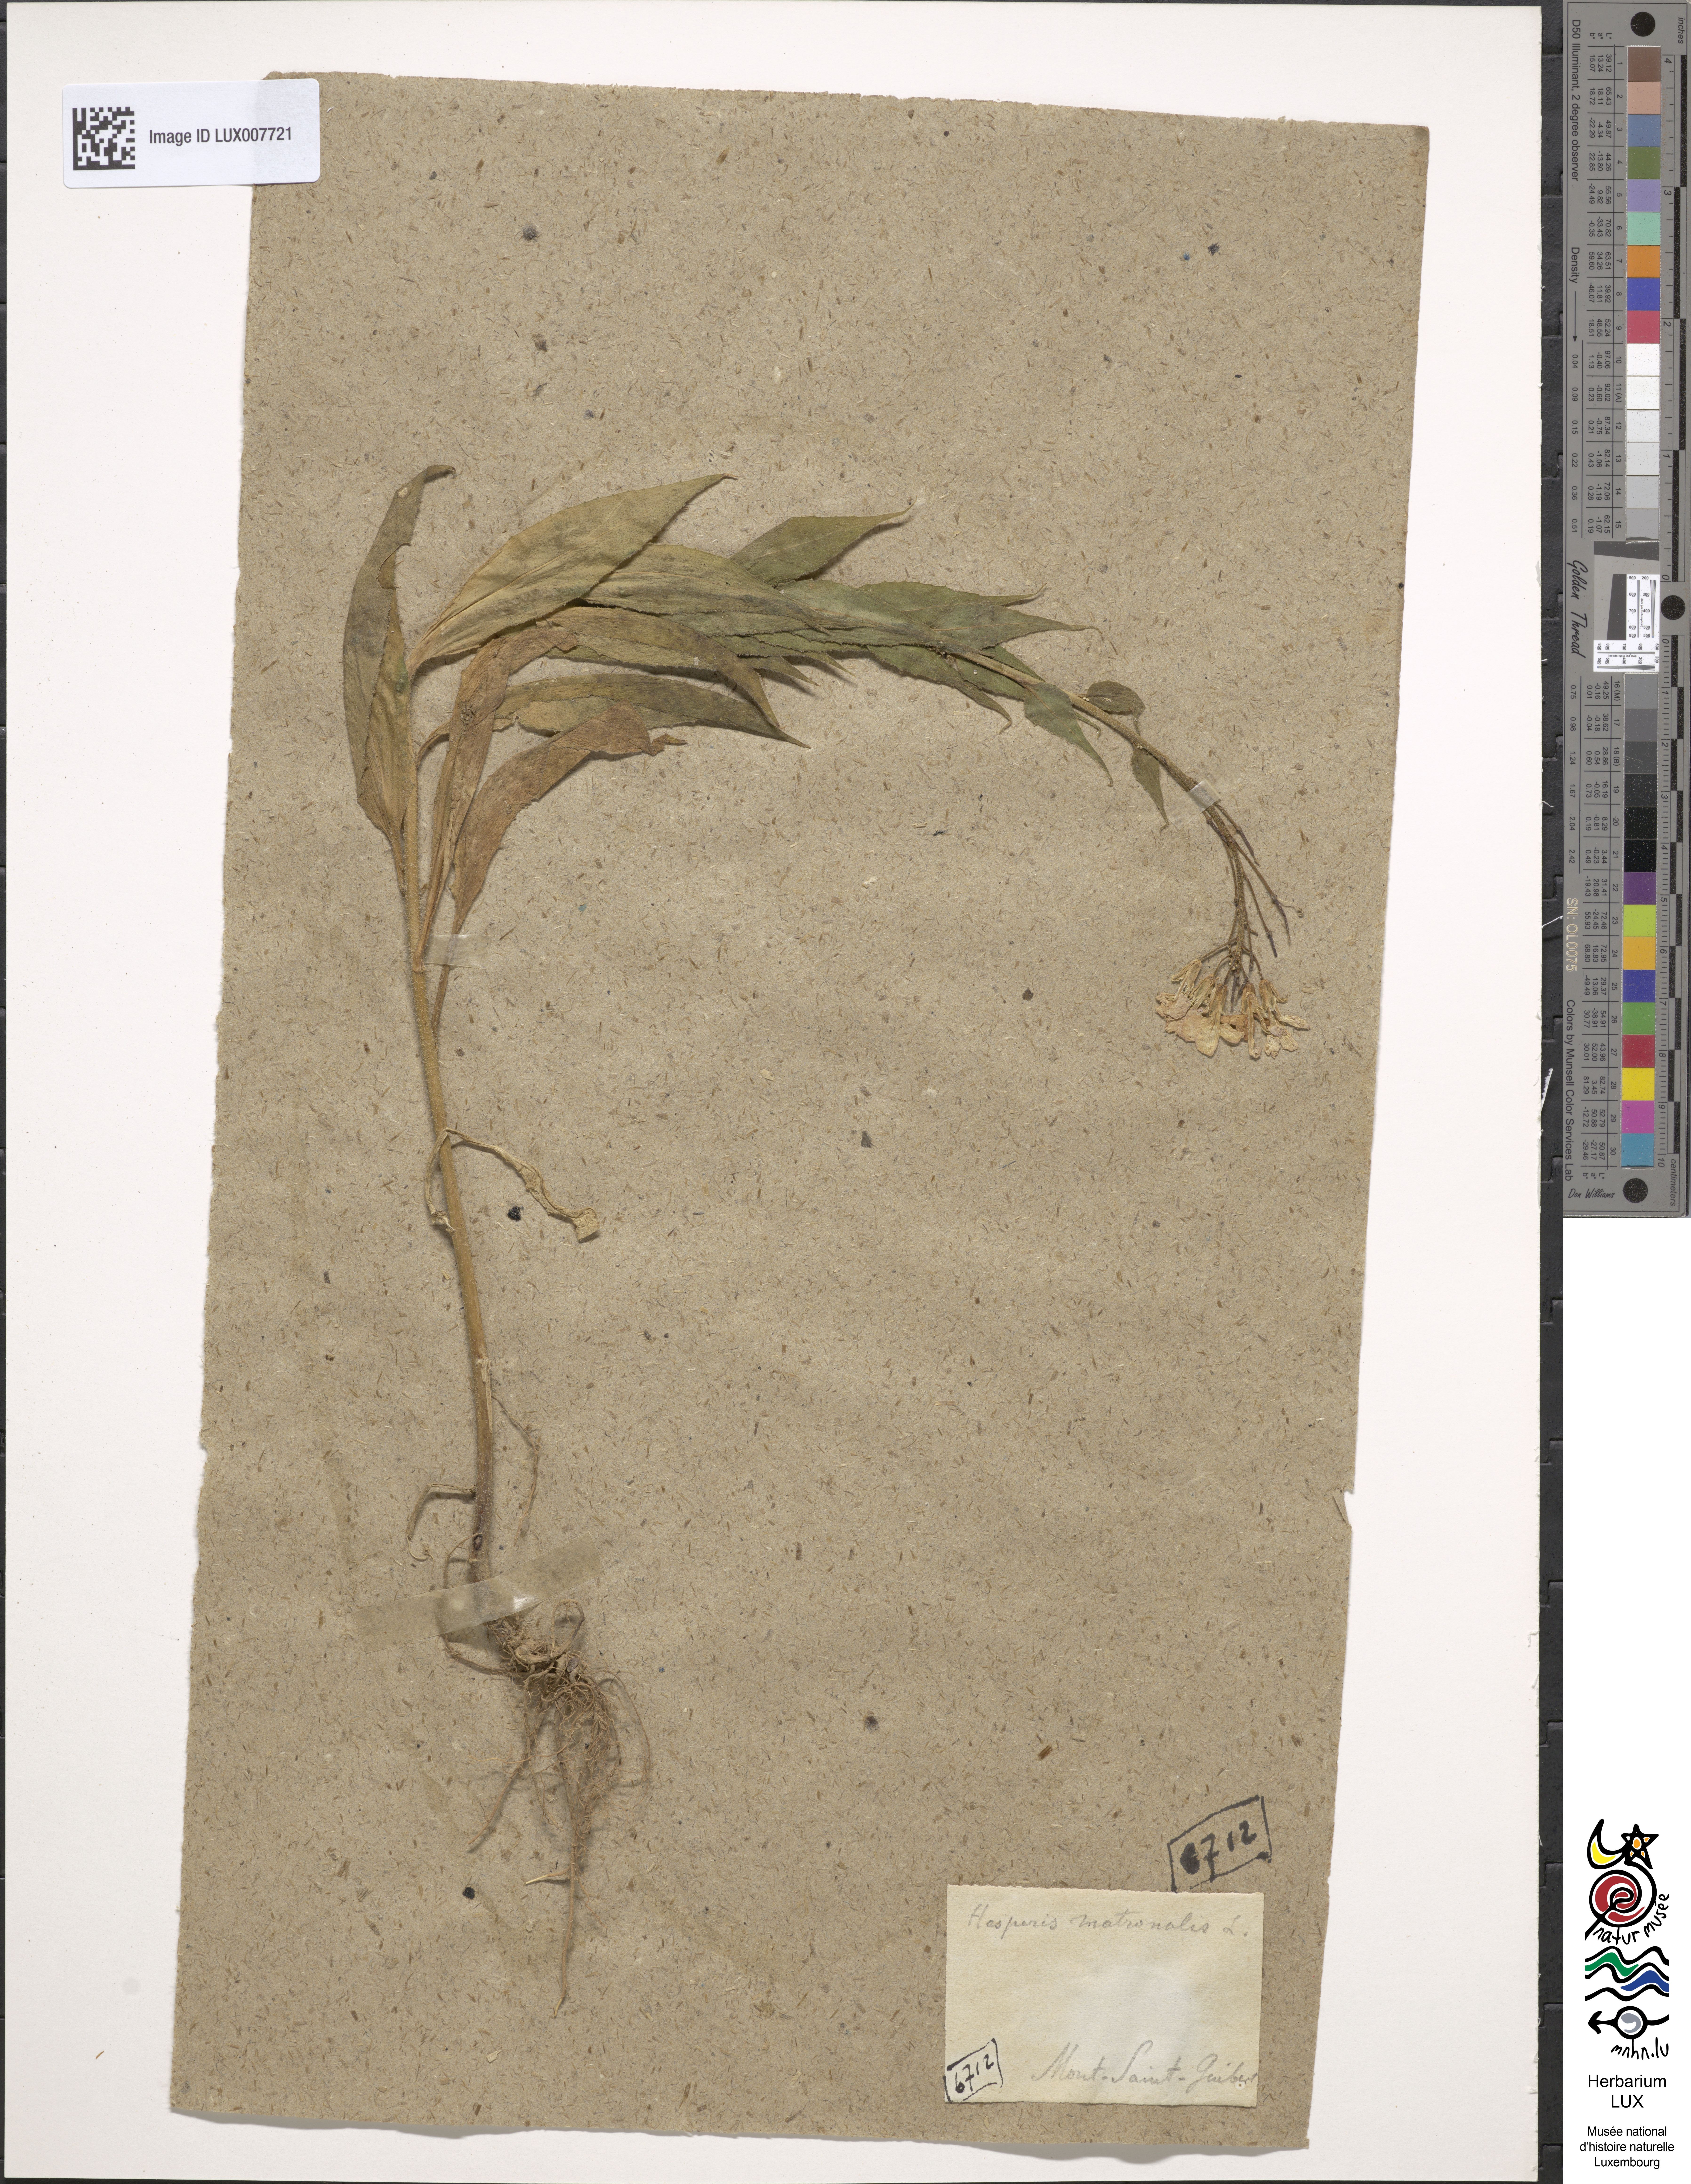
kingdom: Plantae
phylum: Tracheophyta
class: Magnoliopsida
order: Brassicales
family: Brassicaceae
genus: Hesperis
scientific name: Hesperis matronalis
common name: Dame's-violet
